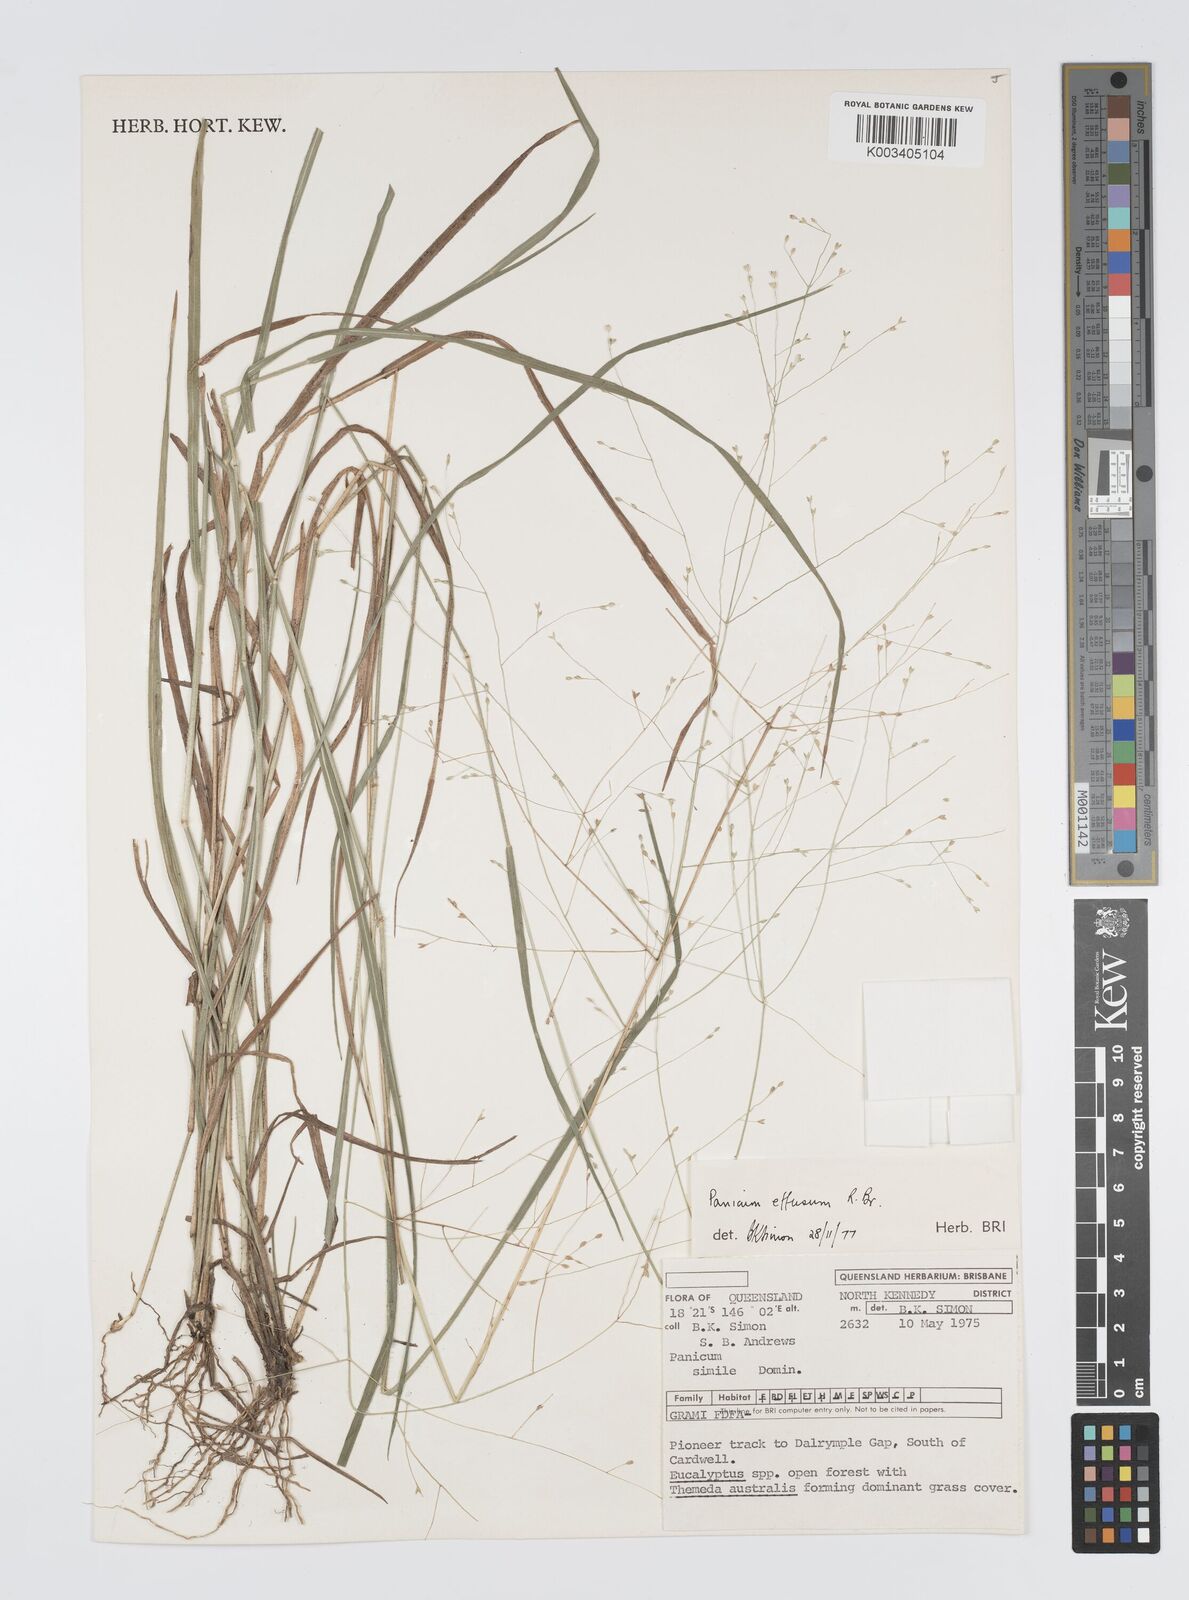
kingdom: Plantae
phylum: Tracheophyta
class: Liliopsida
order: Poales
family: Poaceae
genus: Panicum
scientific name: Panicum simile
